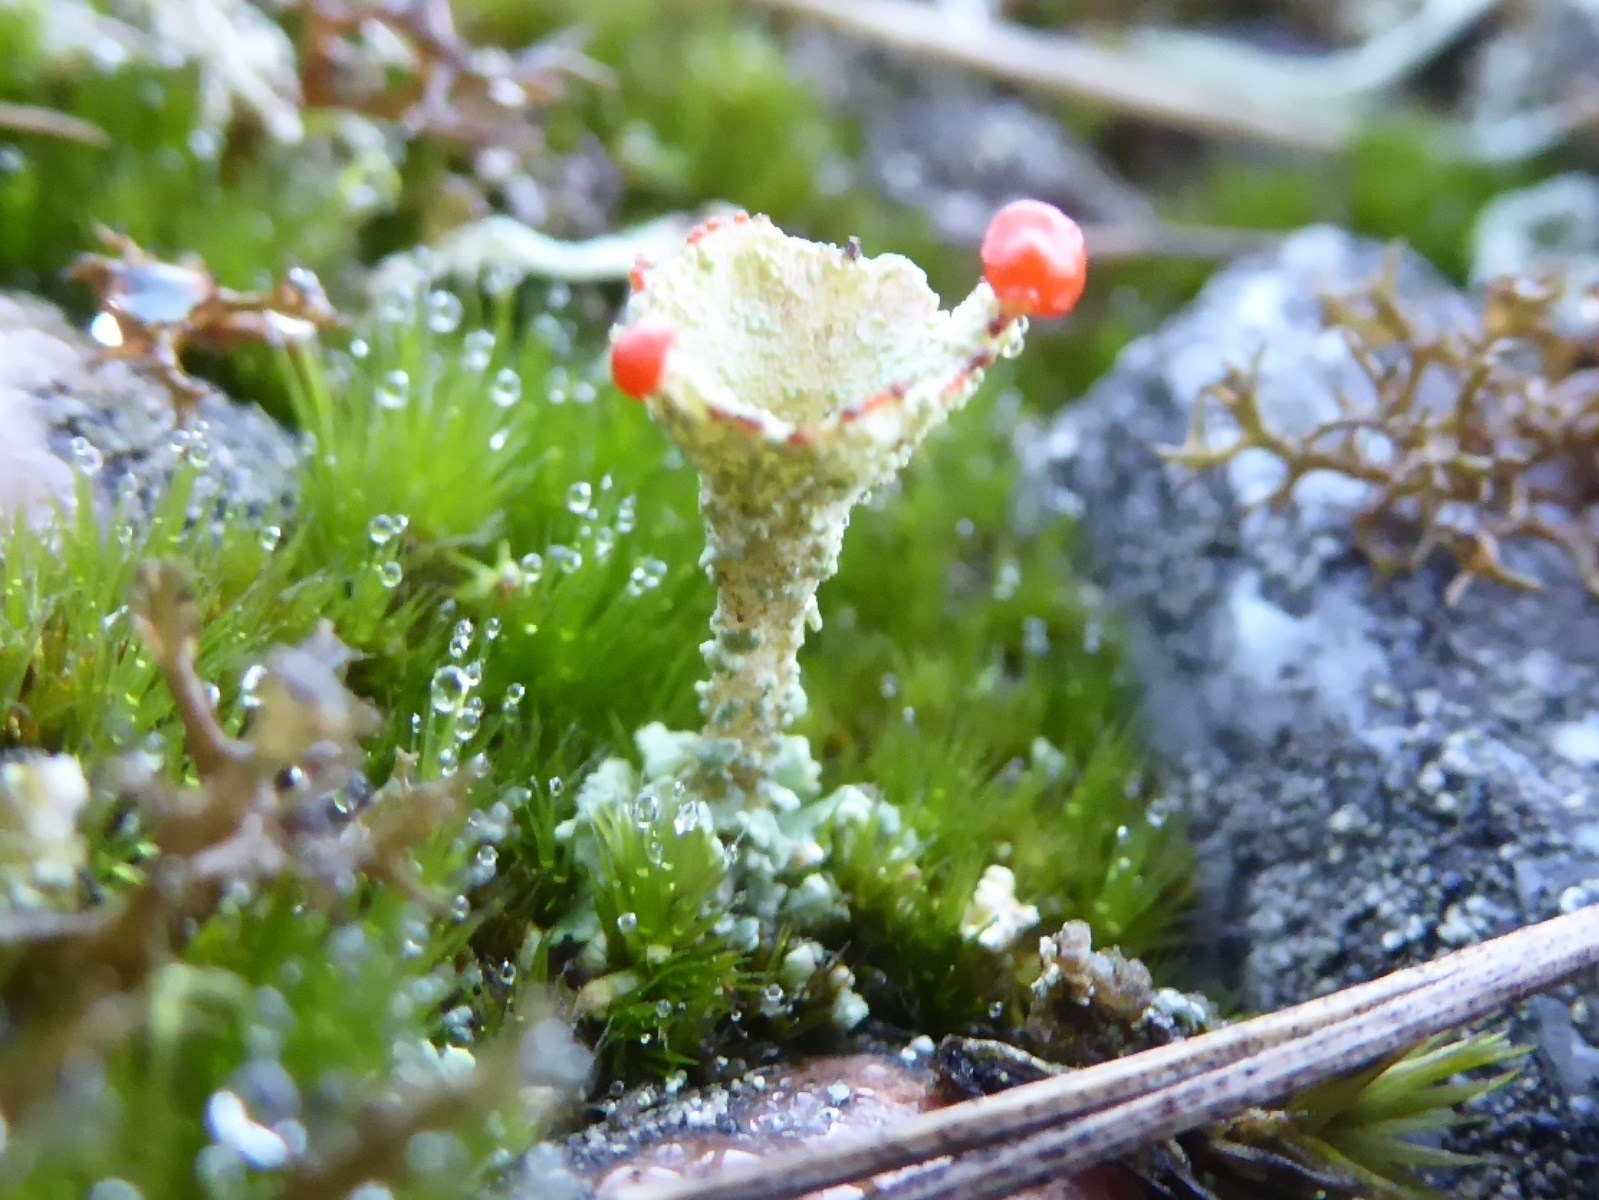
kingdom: Fungi
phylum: Ascomycota
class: Lecanoromycetes
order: Lecanorales
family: Cladoniaceae
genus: Cladonia
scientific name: Cladonia diversa
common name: rød bægerlav
